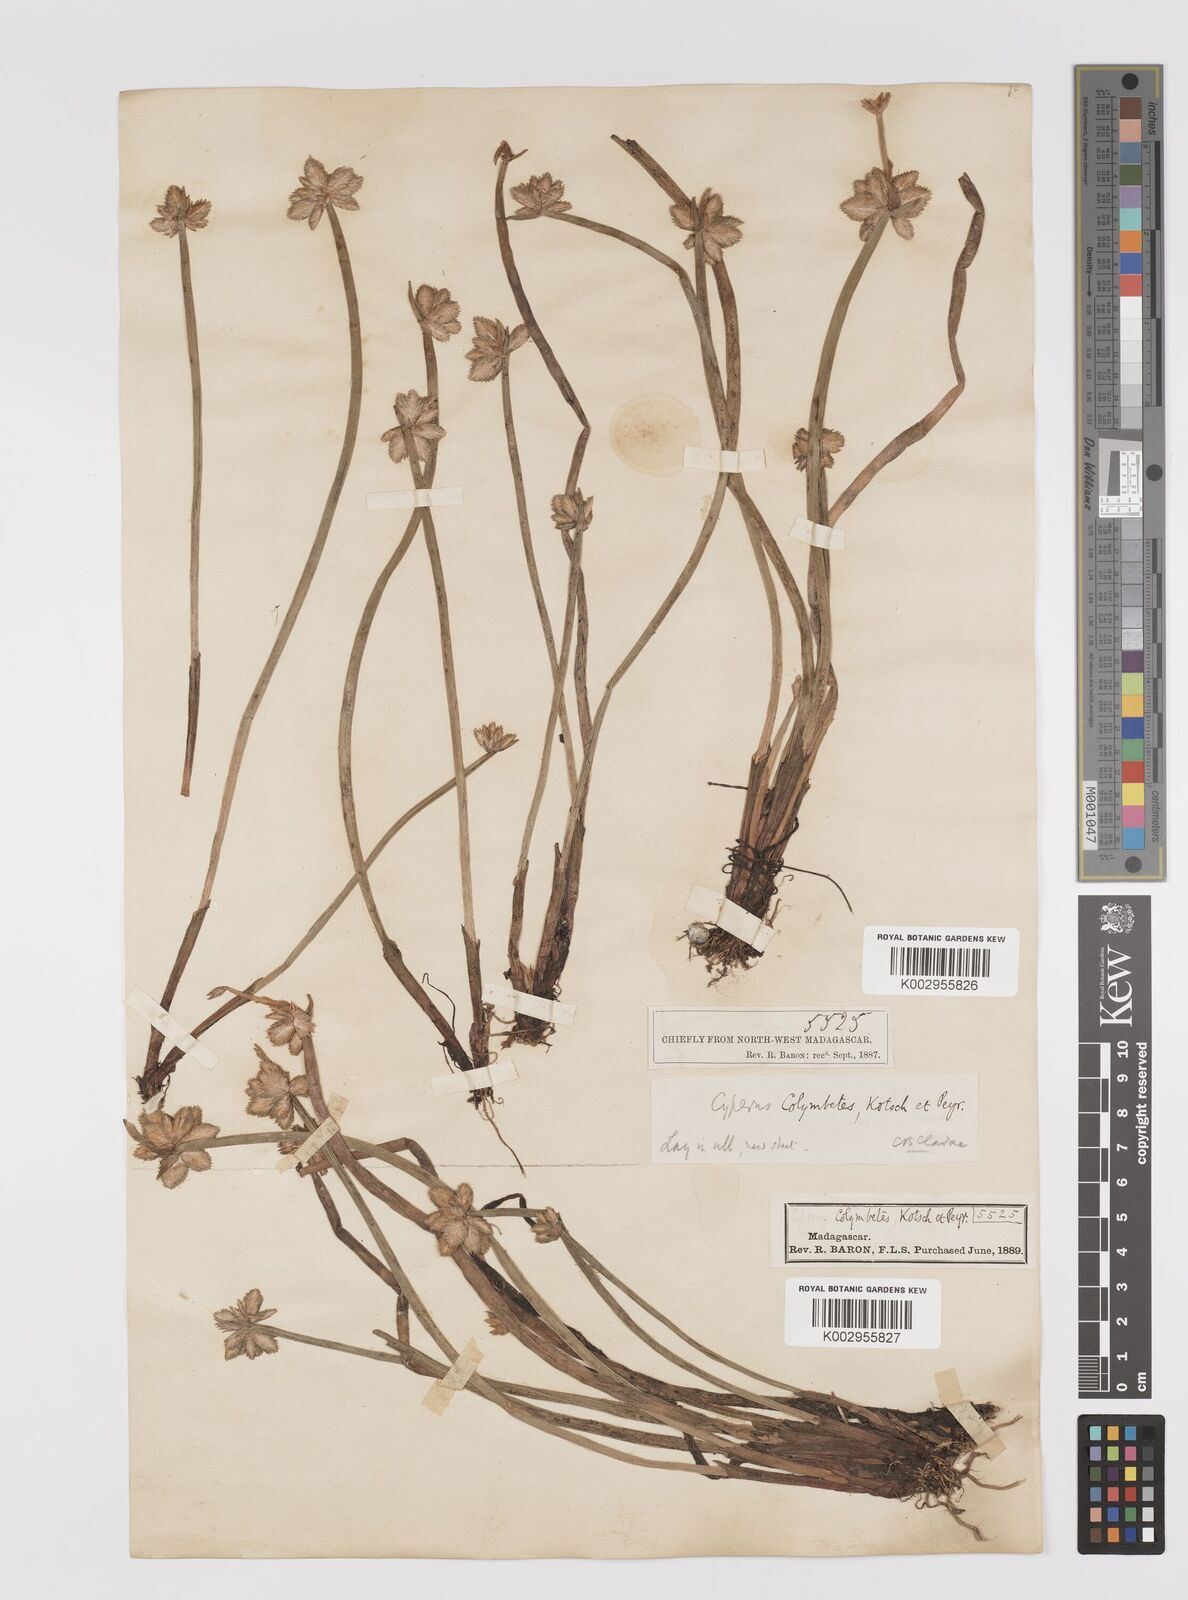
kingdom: Plantae
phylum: Tracheophyta
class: Liliopsida
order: Poales
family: Cyperaceae
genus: Cyperus
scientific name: Cyperus colymbetes
